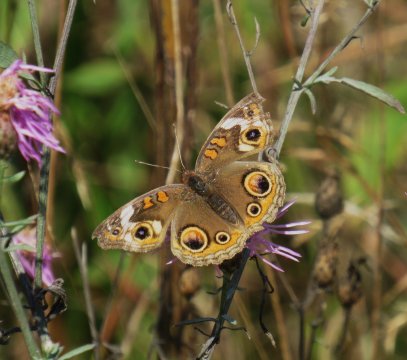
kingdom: Animalia
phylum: Arthropoda
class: Insecta
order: Lepidoptera
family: Nymphalidae
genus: Junonia
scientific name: Junonia coenia
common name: Common Buckeye
